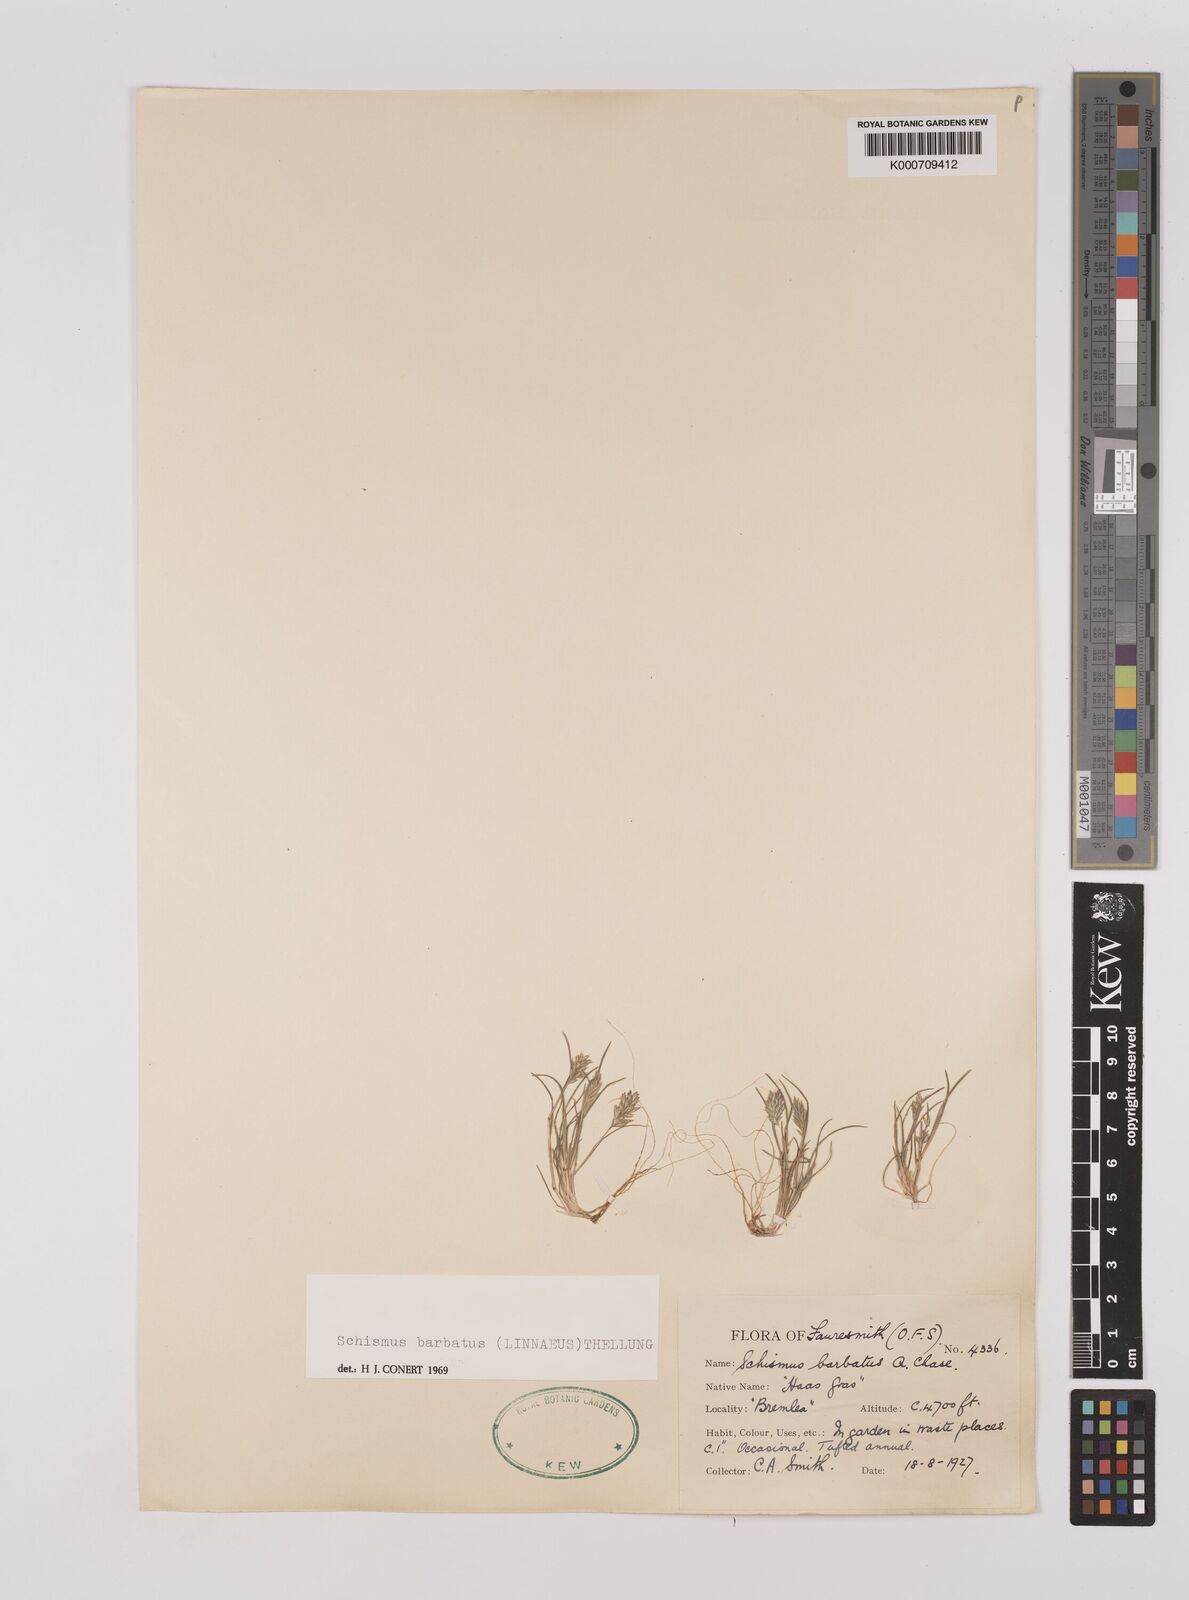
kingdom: Plantae
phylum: Tracheophyta
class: Liliopsida
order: Poales
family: Poaceae
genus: Schismus
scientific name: Schismus barbatus
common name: Kelch-grass
